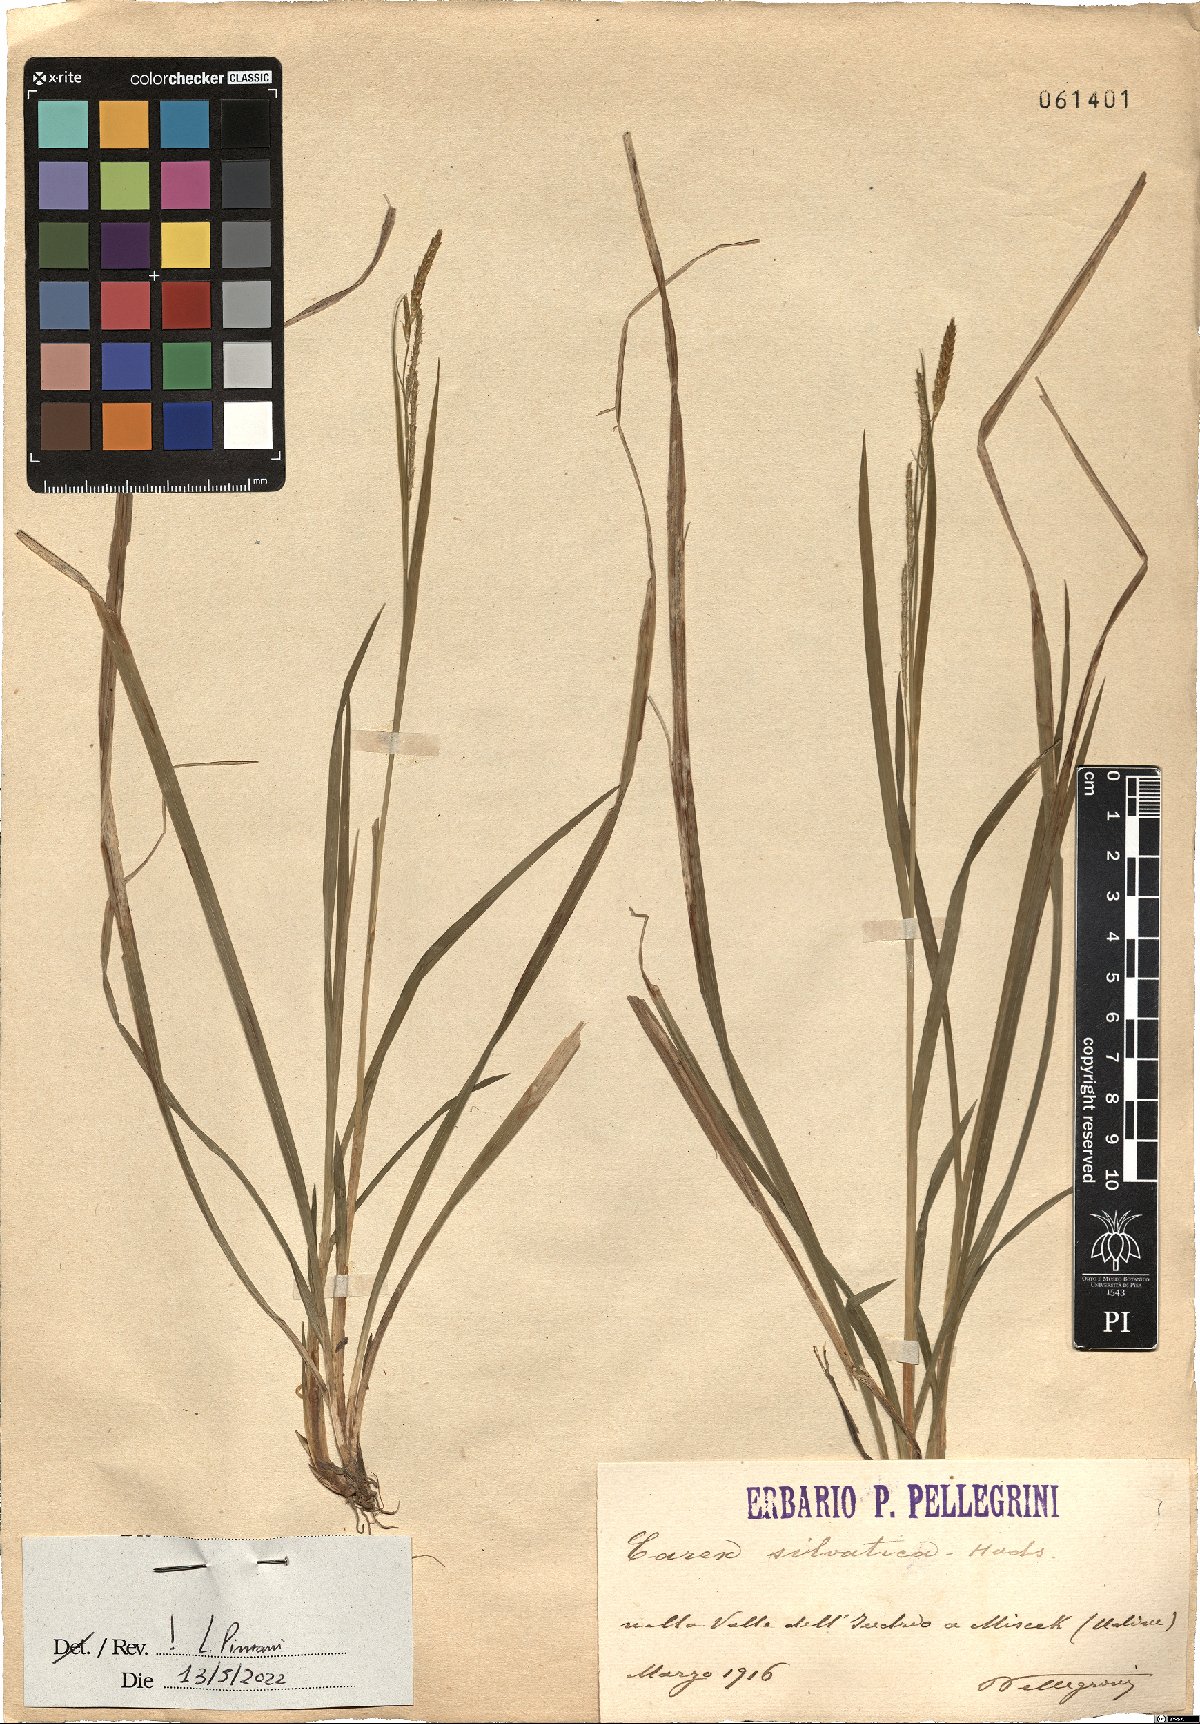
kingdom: Plantae
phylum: Tracheophyta
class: Liliopsida
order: Poales
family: Cyperaceae
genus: Carex
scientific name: Carex sylvatica
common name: Wood-sedge
